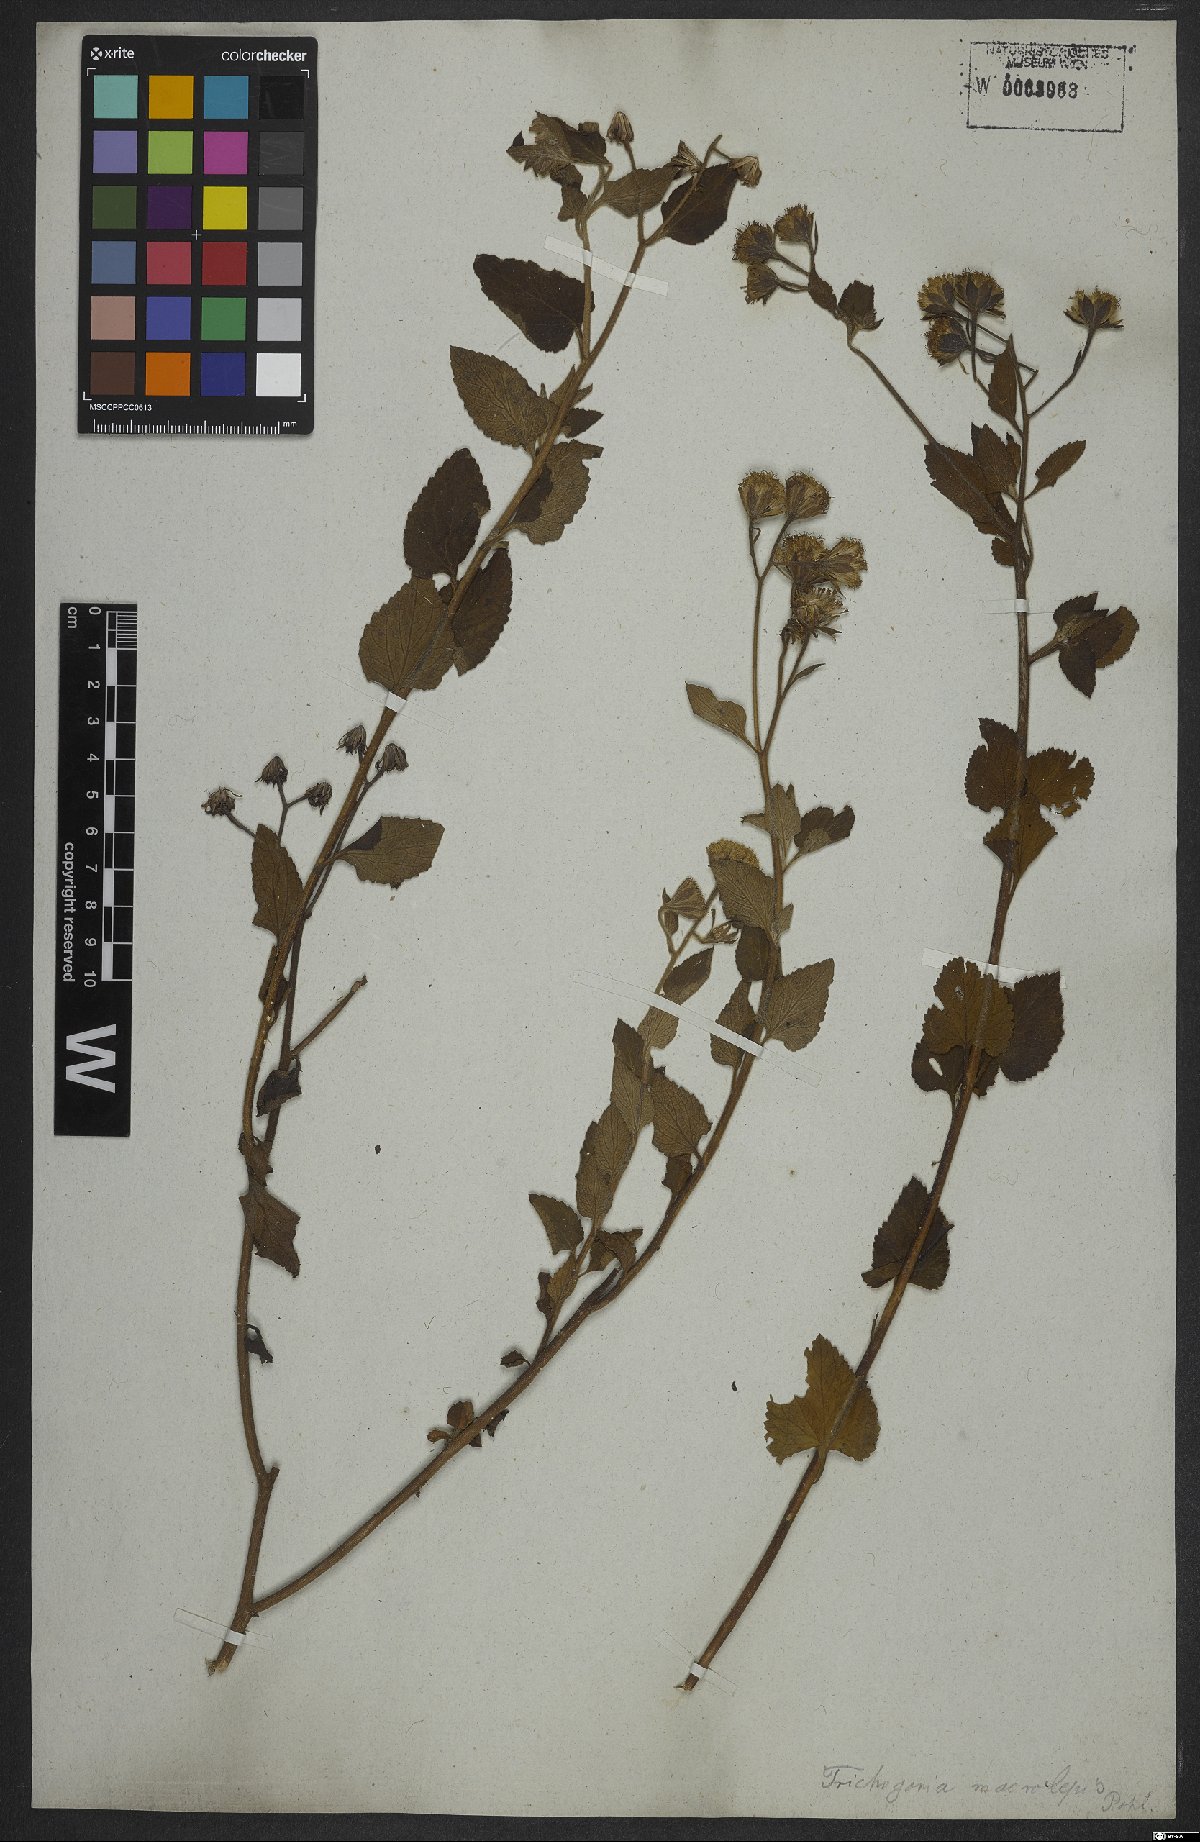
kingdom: Plantae
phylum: Tracheophyta
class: Magnoliopsida
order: Asterales
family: Asteraceae
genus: Trichogoniopsis
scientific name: Trichogoniopsis podocarpa
